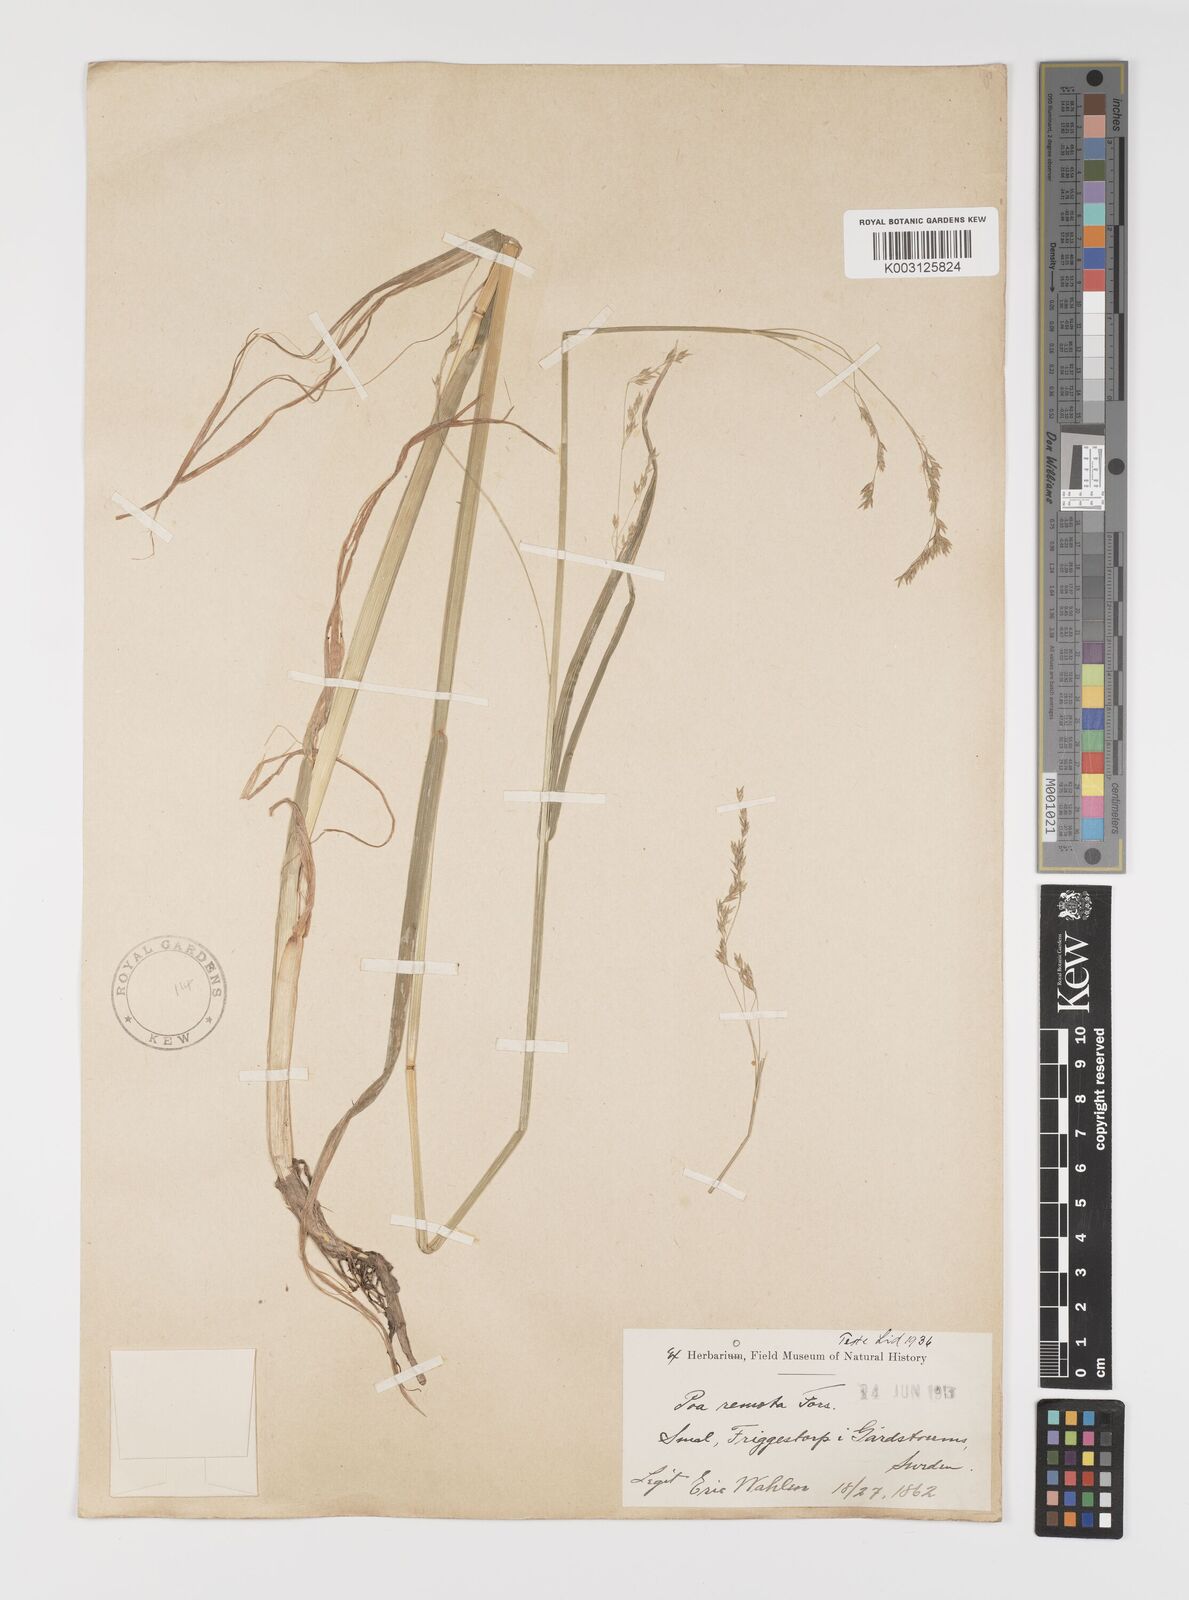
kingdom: Plantae
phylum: Tracheophyta
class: Liliopsida
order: Poales
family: Poaceae
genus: Poa
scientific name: Poa remota
